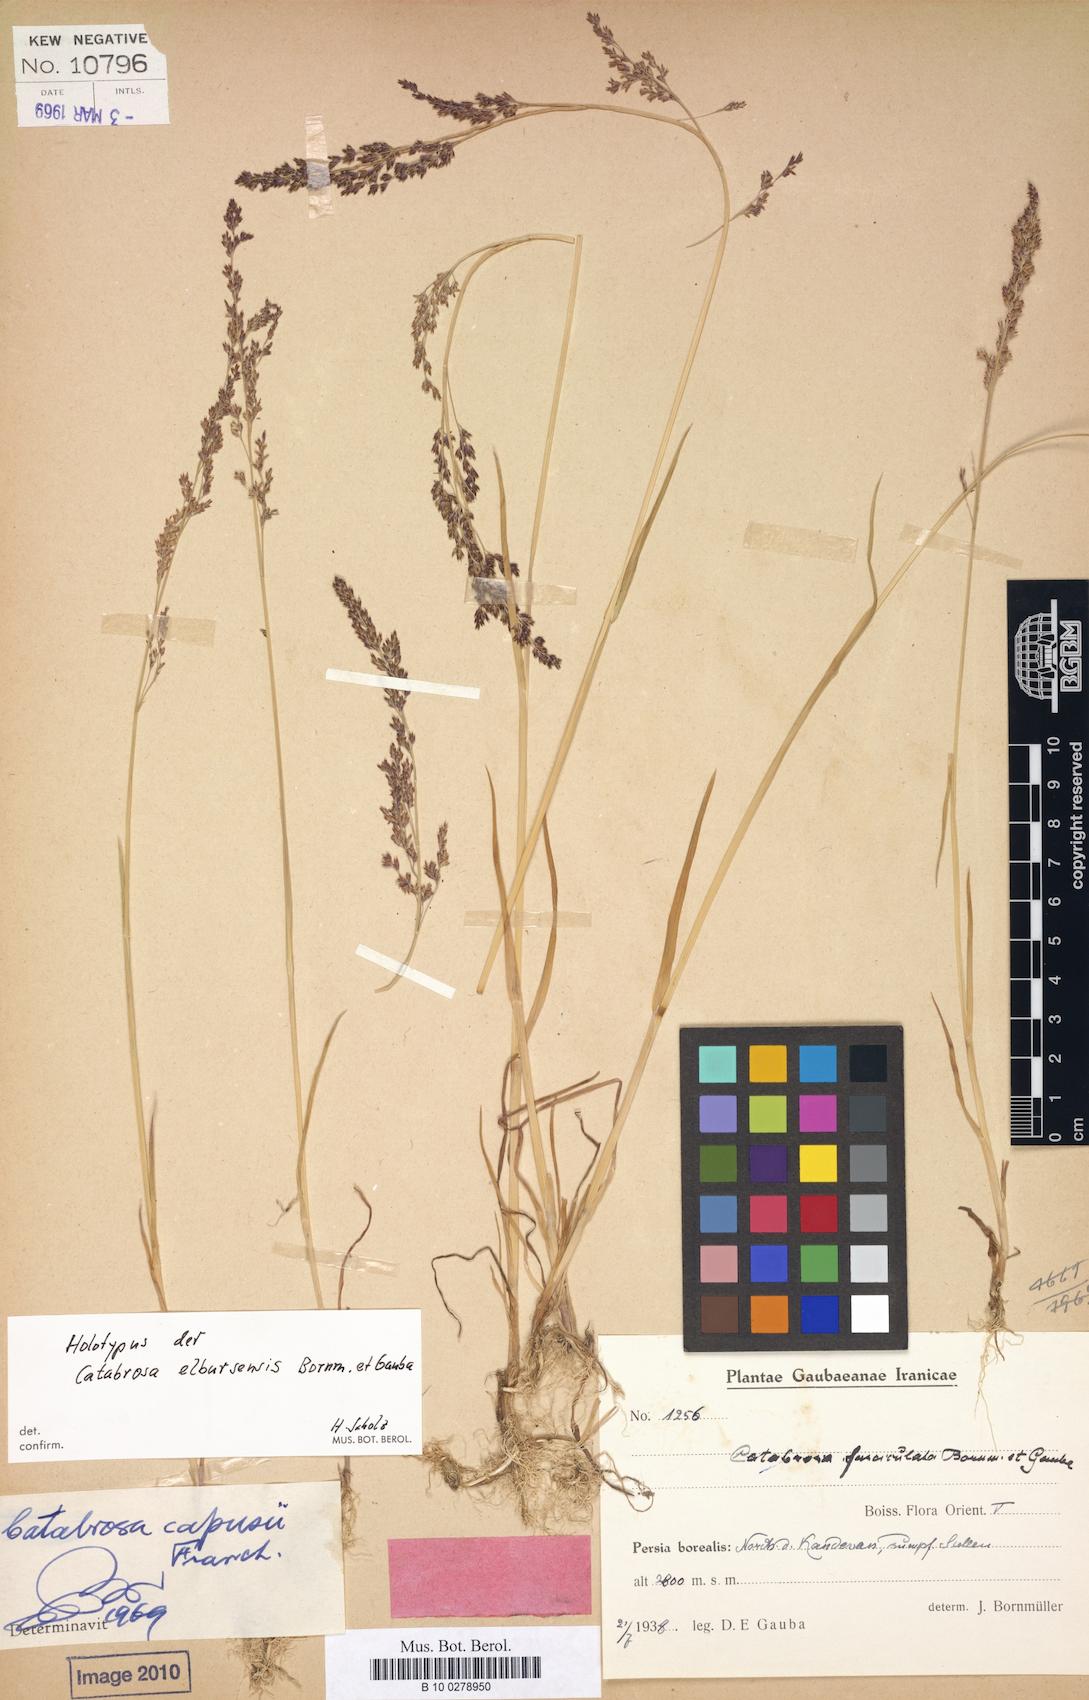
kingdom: Plantae
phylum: Tracheophyta
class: Liliopsida
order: Poales
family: Poaceae
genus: Catabrosa
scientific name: Catabrosa aquatica
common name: Whorl-grass
